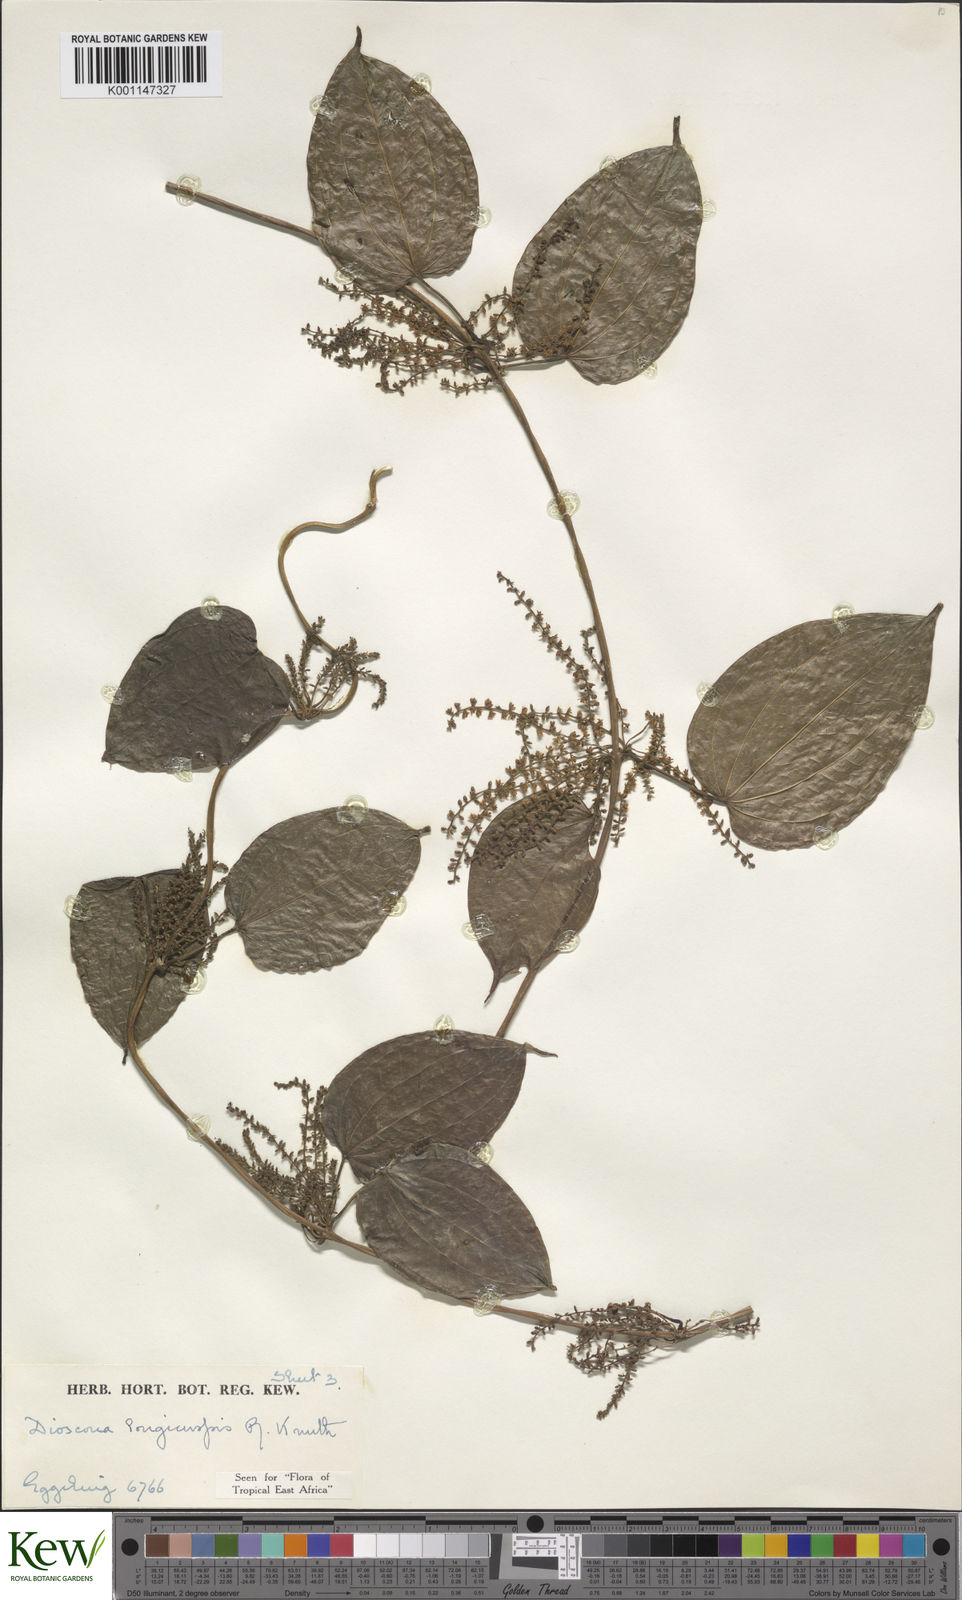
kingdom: Plantae
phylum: Tracheophyta
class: Liliopsida
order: Dioscoreales
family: Dioscoreaceae
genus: Dioscorea
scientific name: Dioscorea longicuspis
